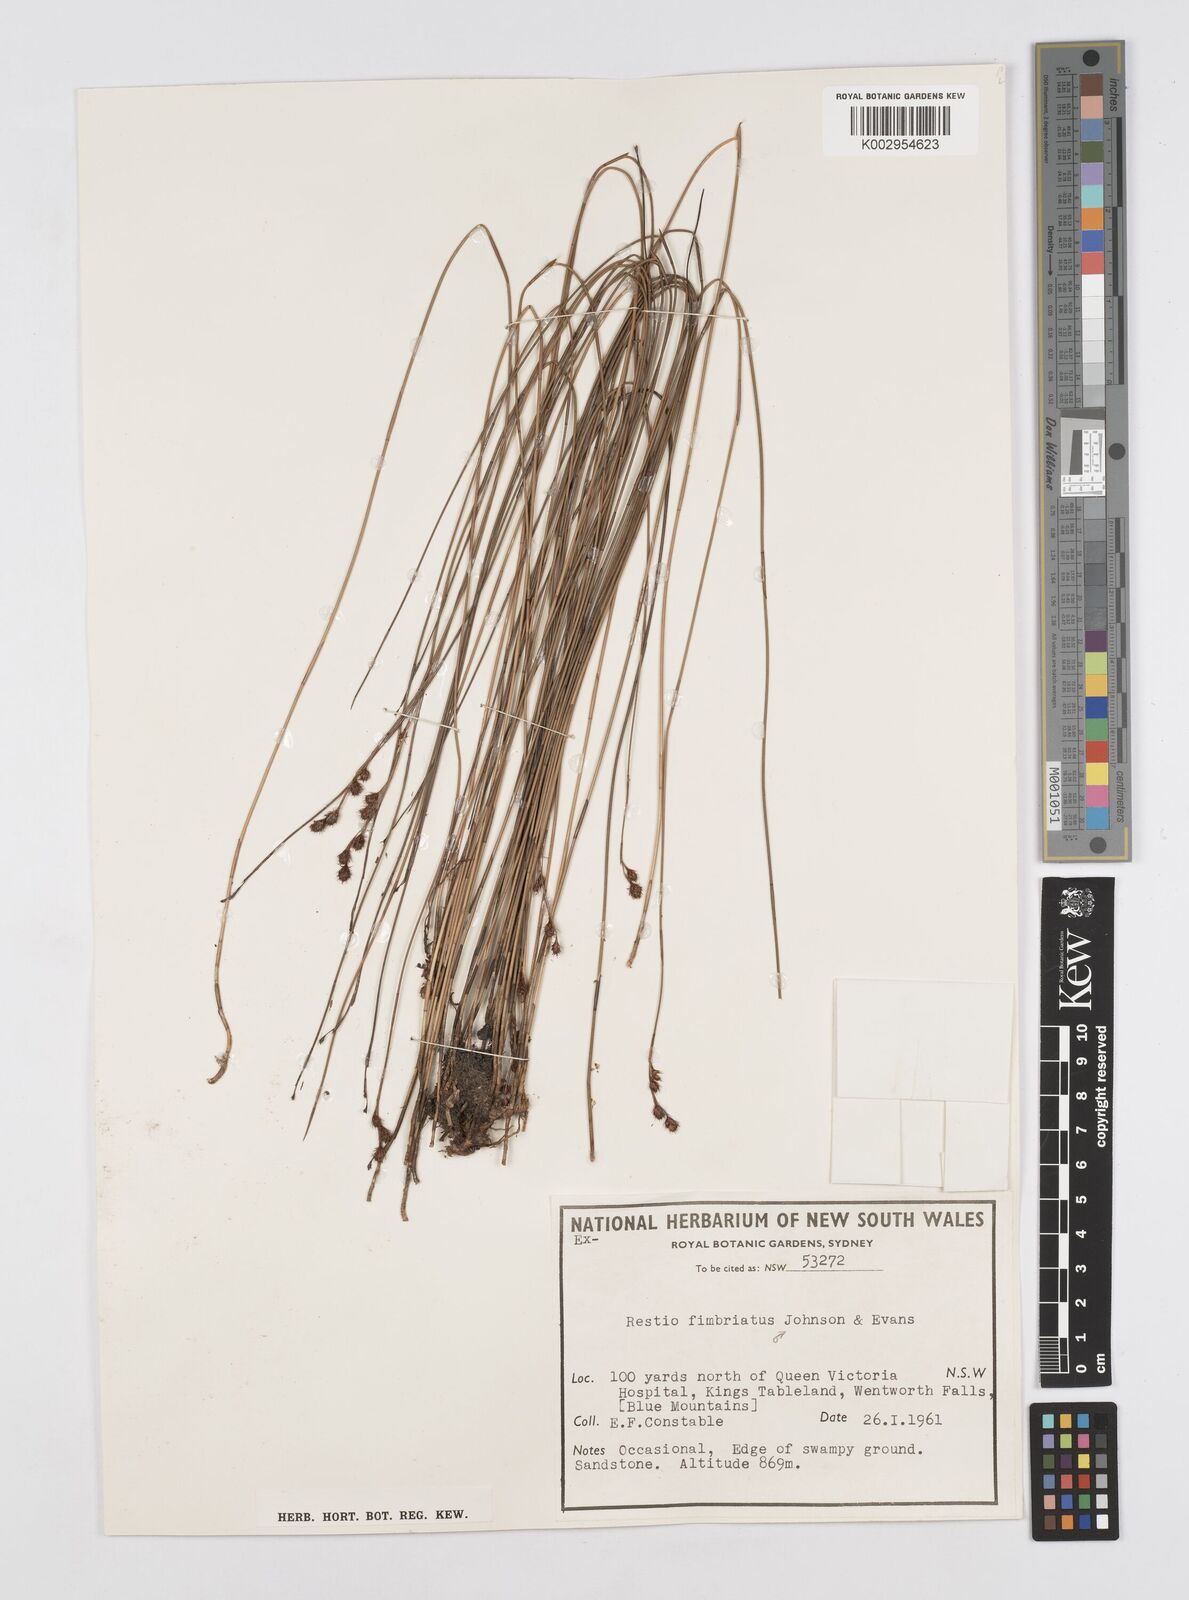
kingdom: Plantae
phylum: Tracheophyta
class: Liliopsida
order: Poales
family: Restionaceae
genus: Baloskion
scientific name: Baloskion fimbriatum
